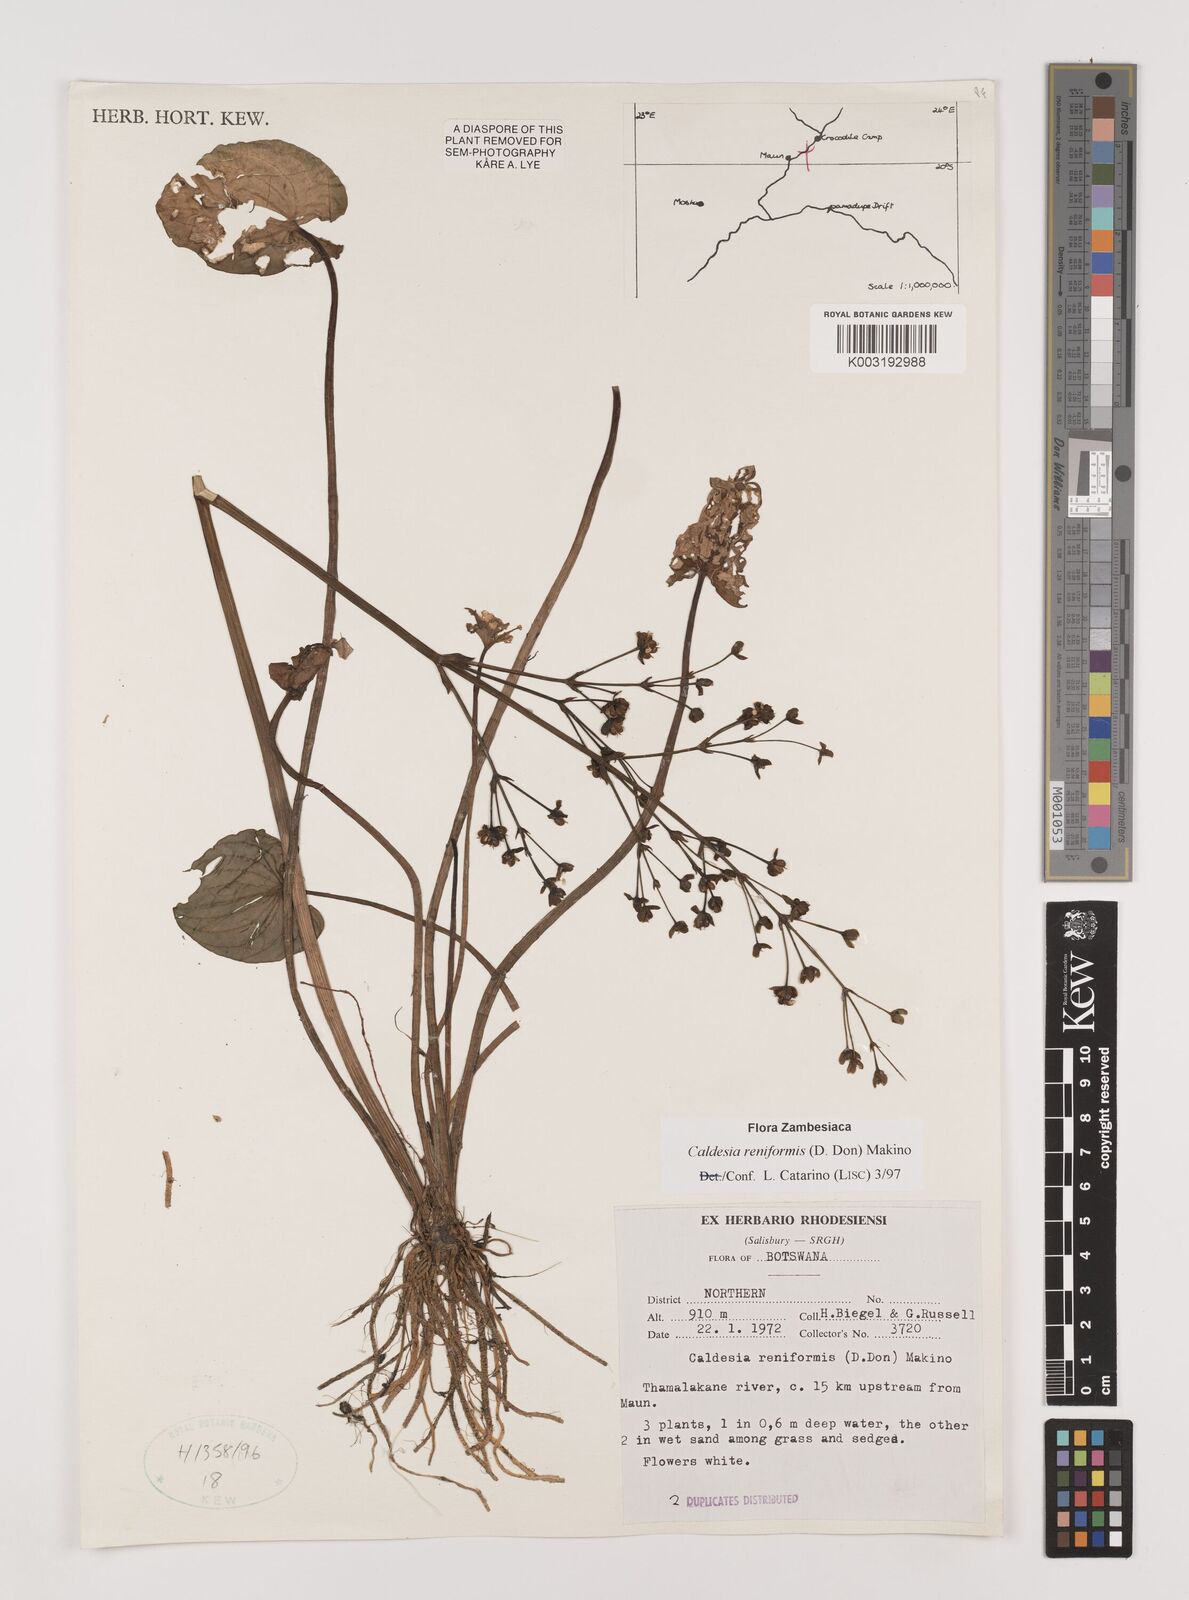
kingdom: Plantae
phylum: Tracheophyta
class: Liliopsida
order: Alismatales
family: Alismataceae
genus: Caldesia
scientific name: Caldesia parnassifolia
